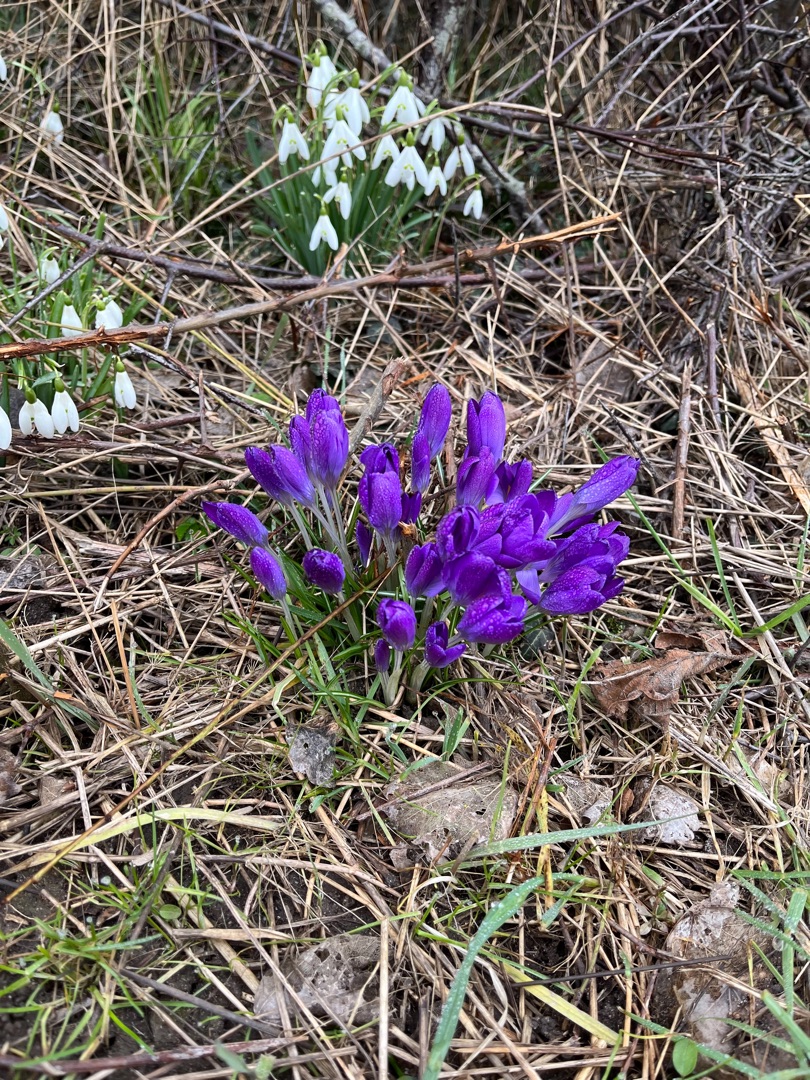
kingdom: Plantae
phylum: Tracheophyta
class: Liliopsida
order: Asparagales
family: Iridaceae
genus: Crocus
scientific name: Crocus vernus
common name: Vår-krokus
